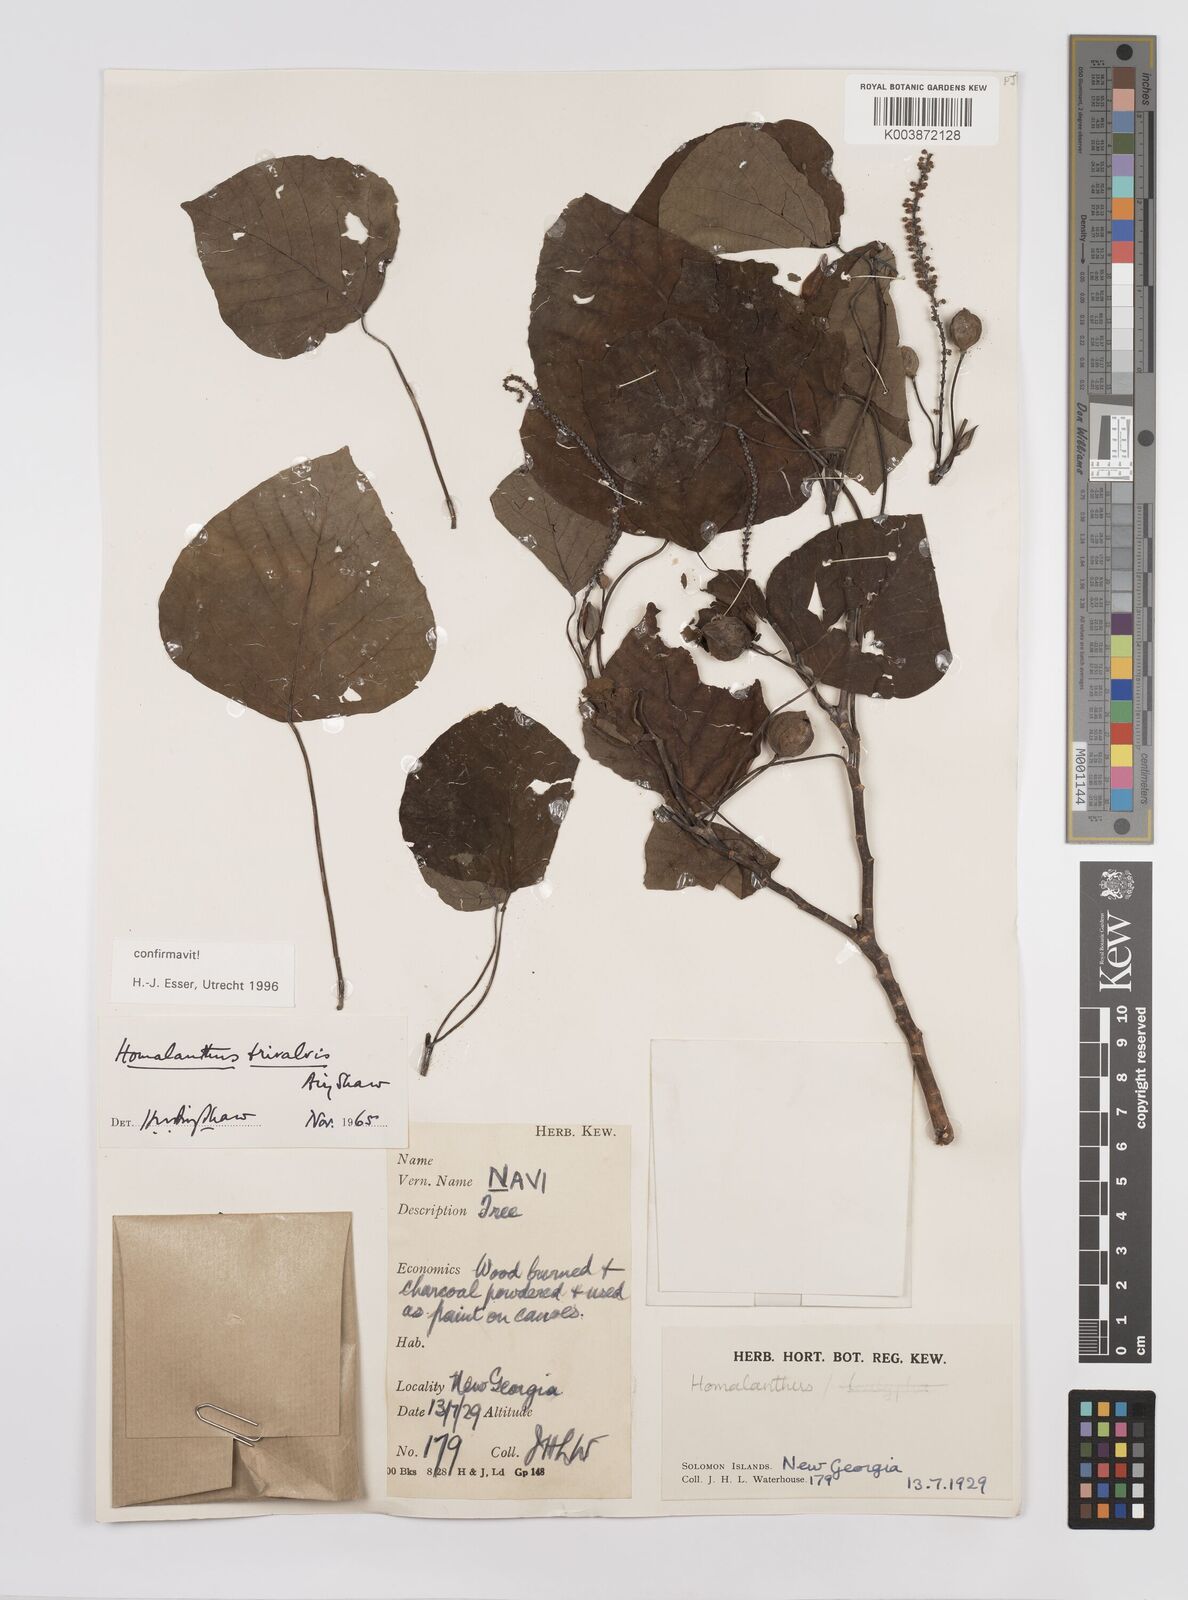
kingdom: Plantae
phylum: Tracheophyta
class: Magnoliopsida
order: Malpighiales
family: Euphorbiaceae
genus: Homalanthus
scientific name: Homalanthus trivalvis
